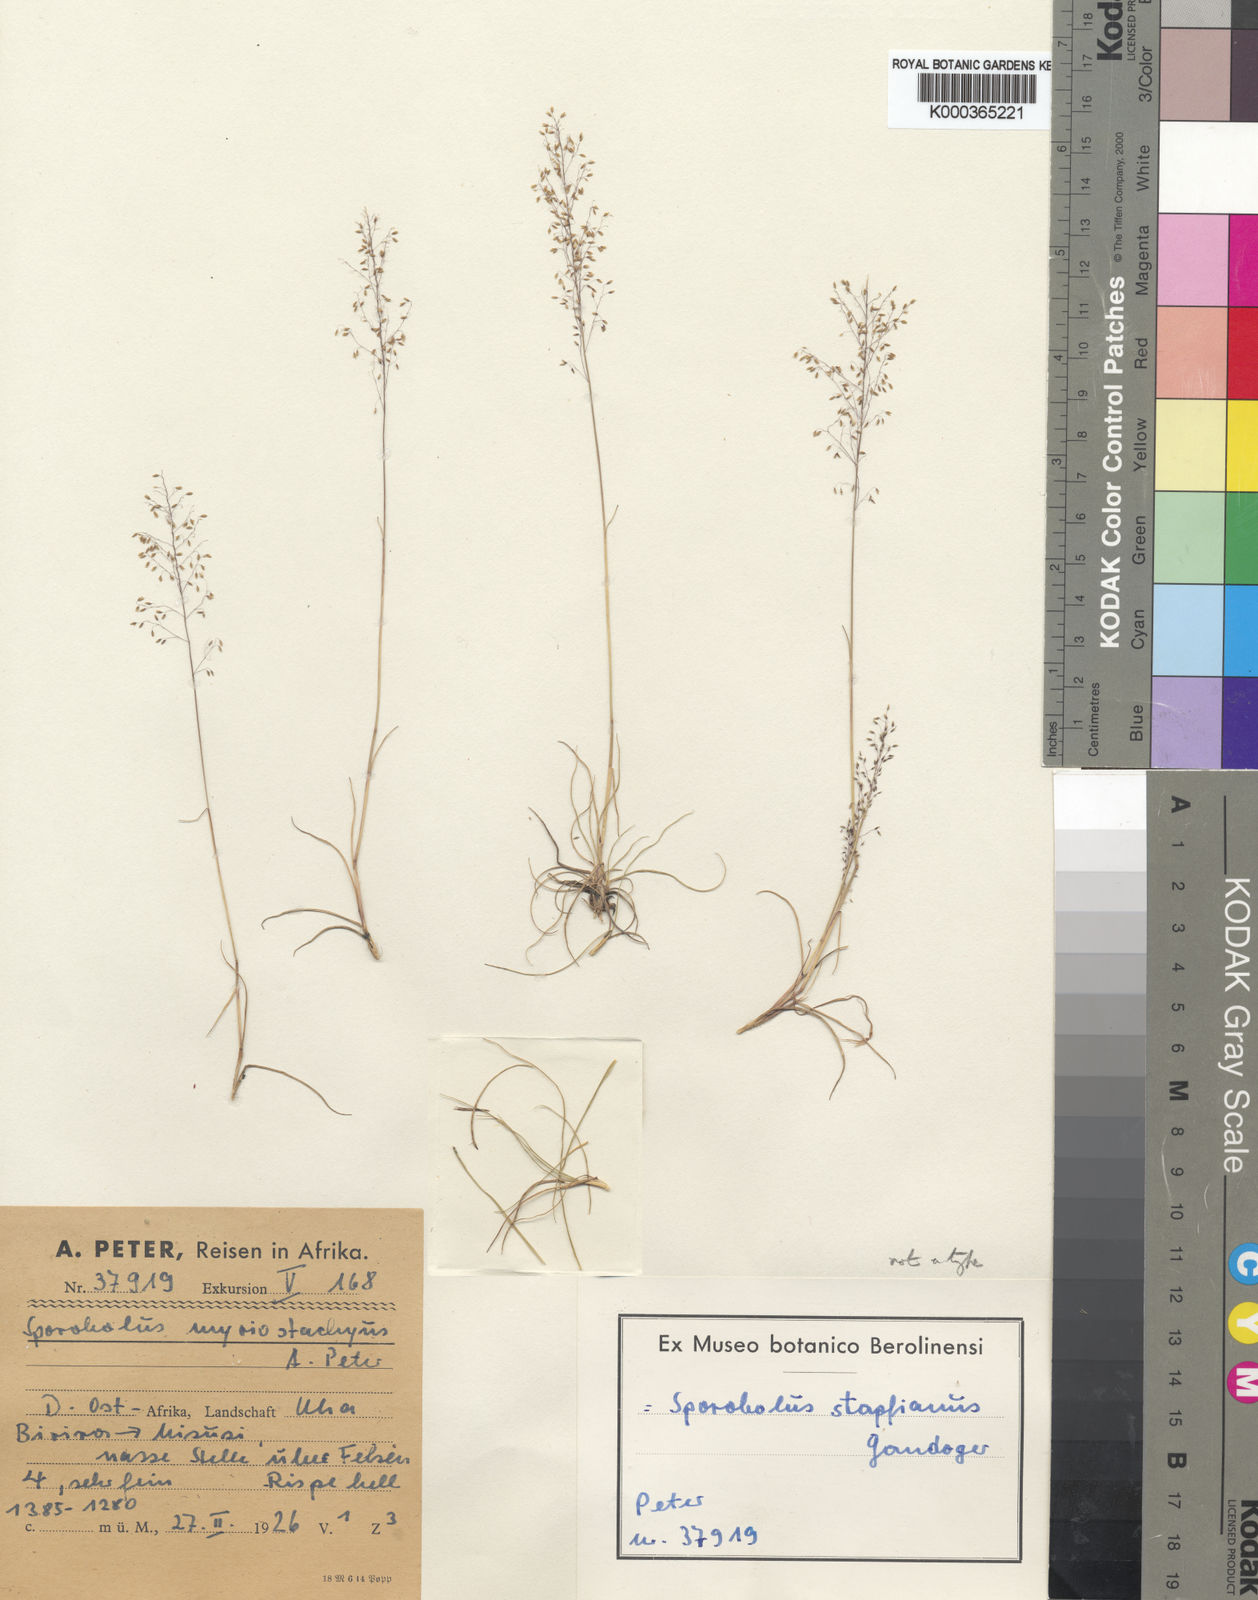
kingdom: Plantae
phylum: Tracheophyta
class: Liliopsida
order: Poales
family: Poaceae
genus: Sporobolus
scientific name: Sporobolus festivus
